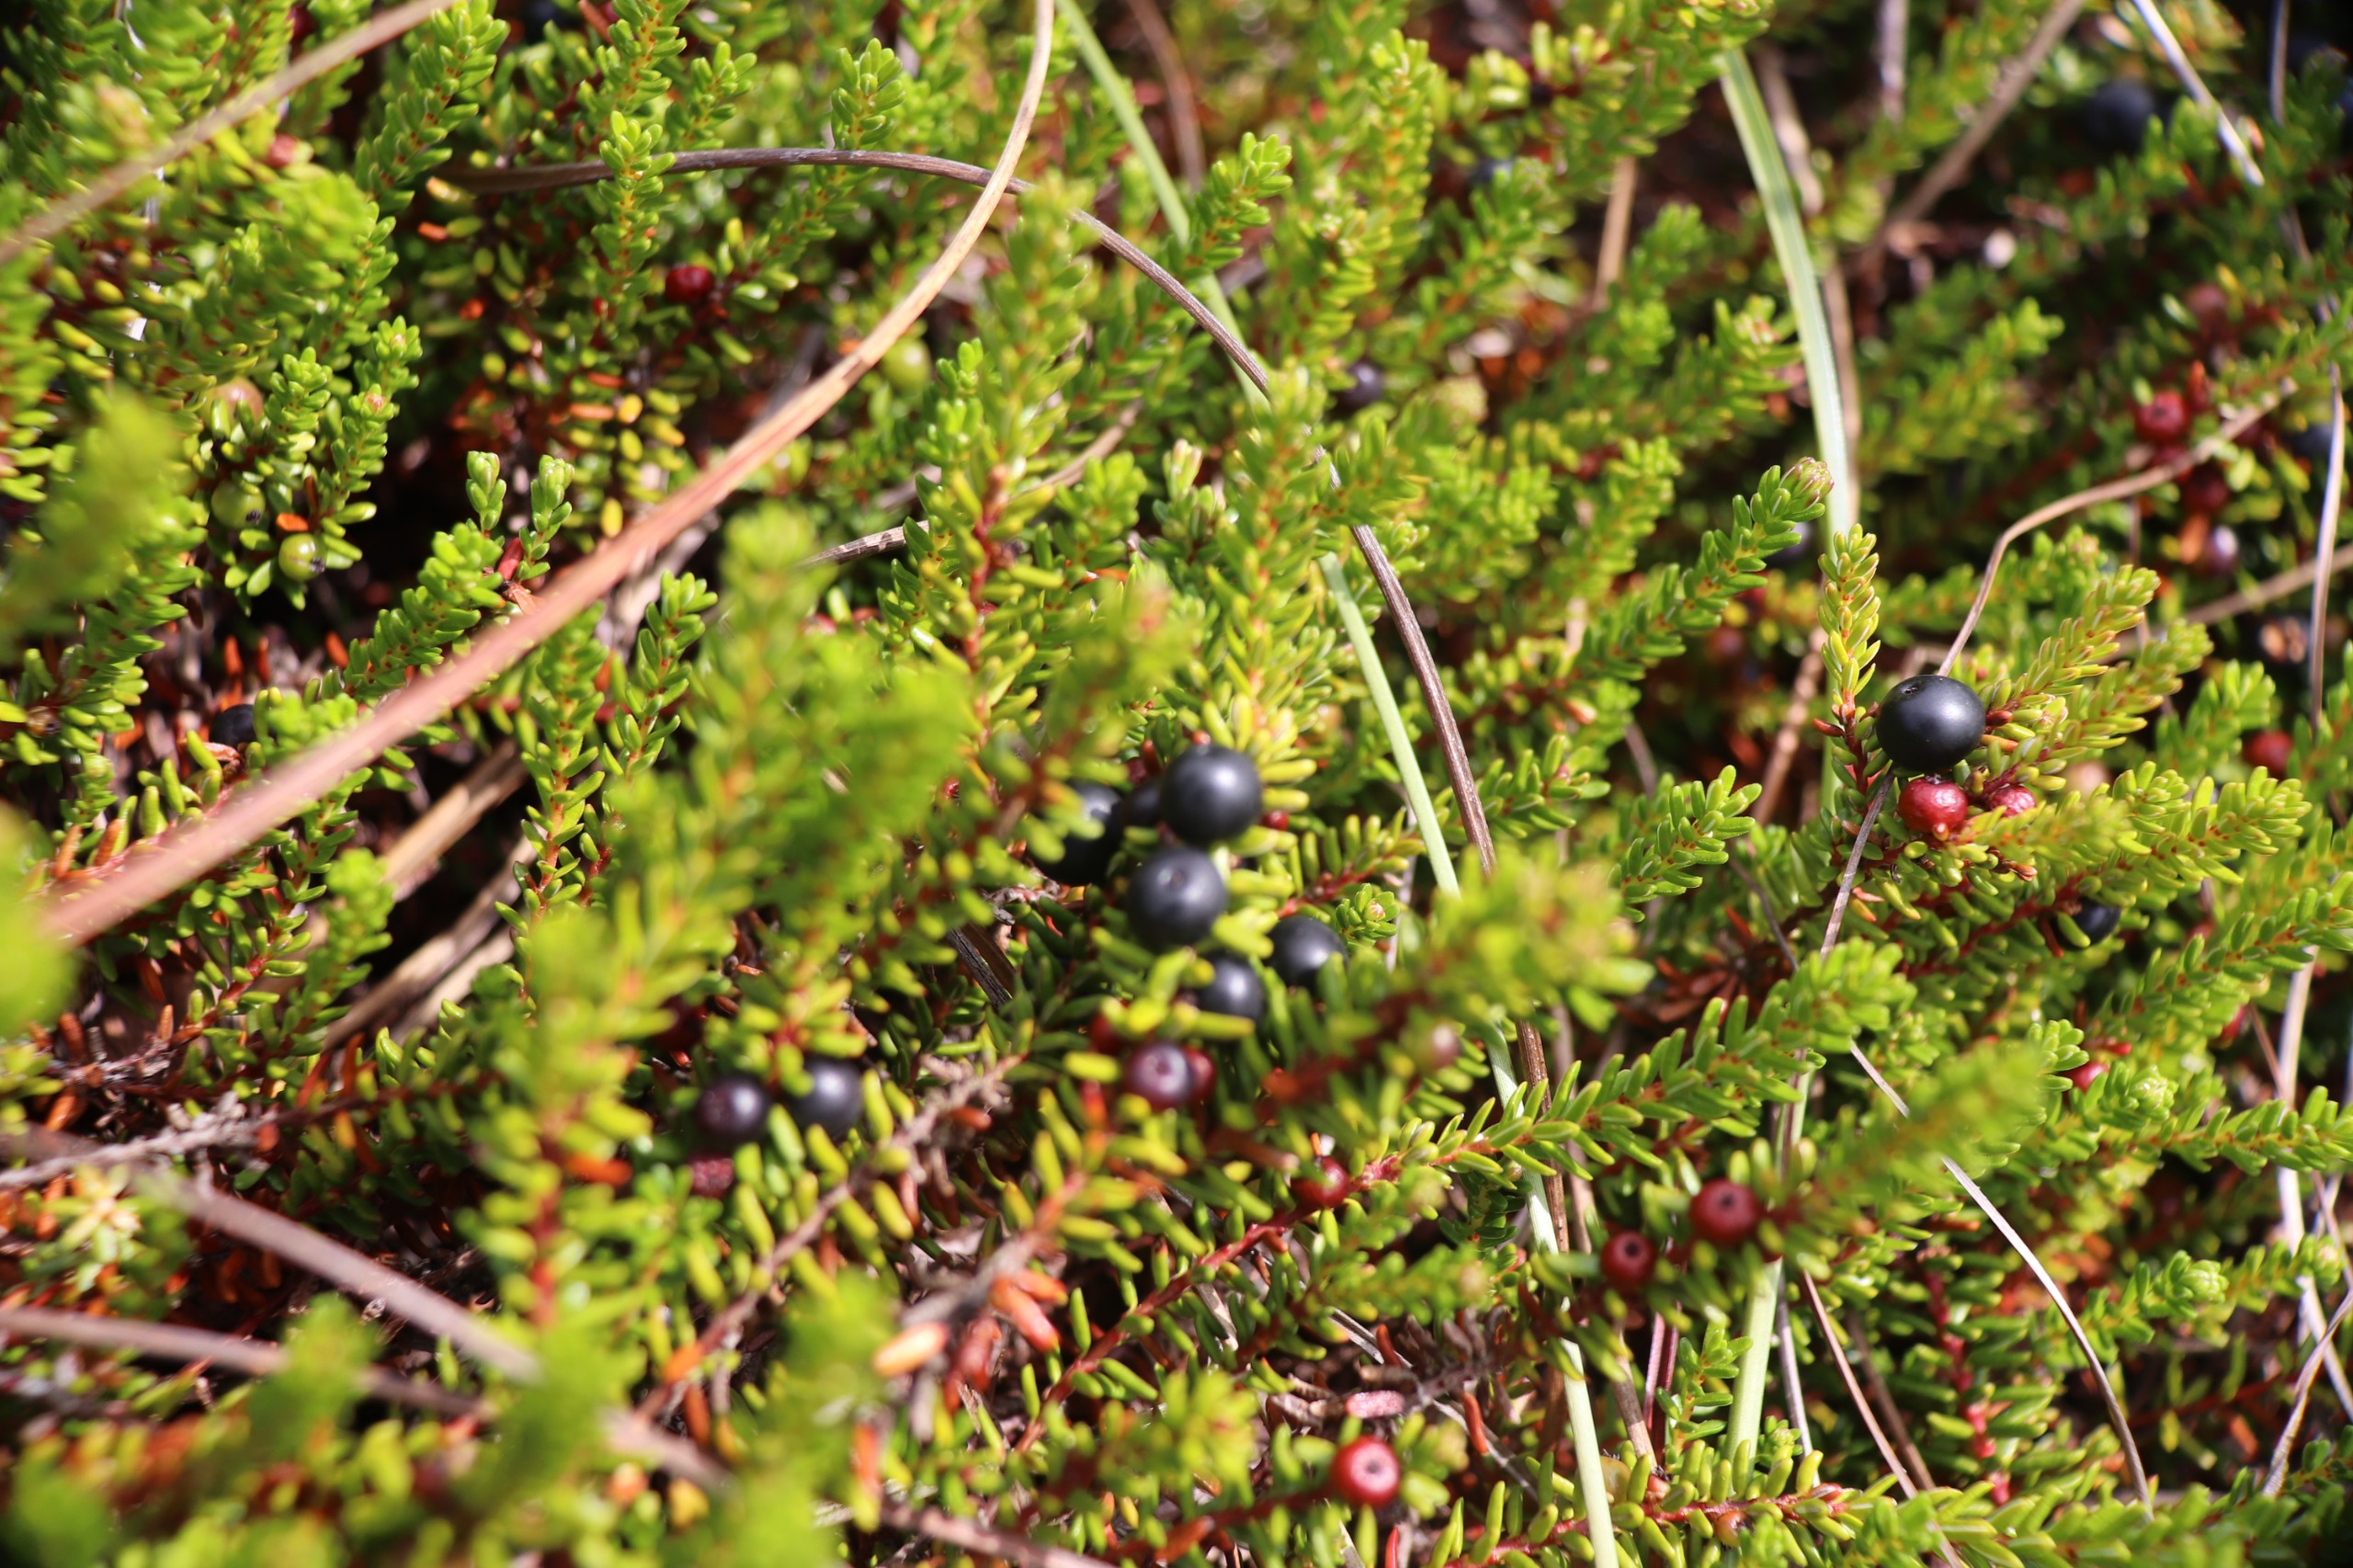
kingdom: Plantae
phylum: Tracheophyta
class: Magnoliopsida
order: Ericales
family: Ericaceae
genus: Empetrum
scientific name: Empetrum nigrum
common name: Revling
